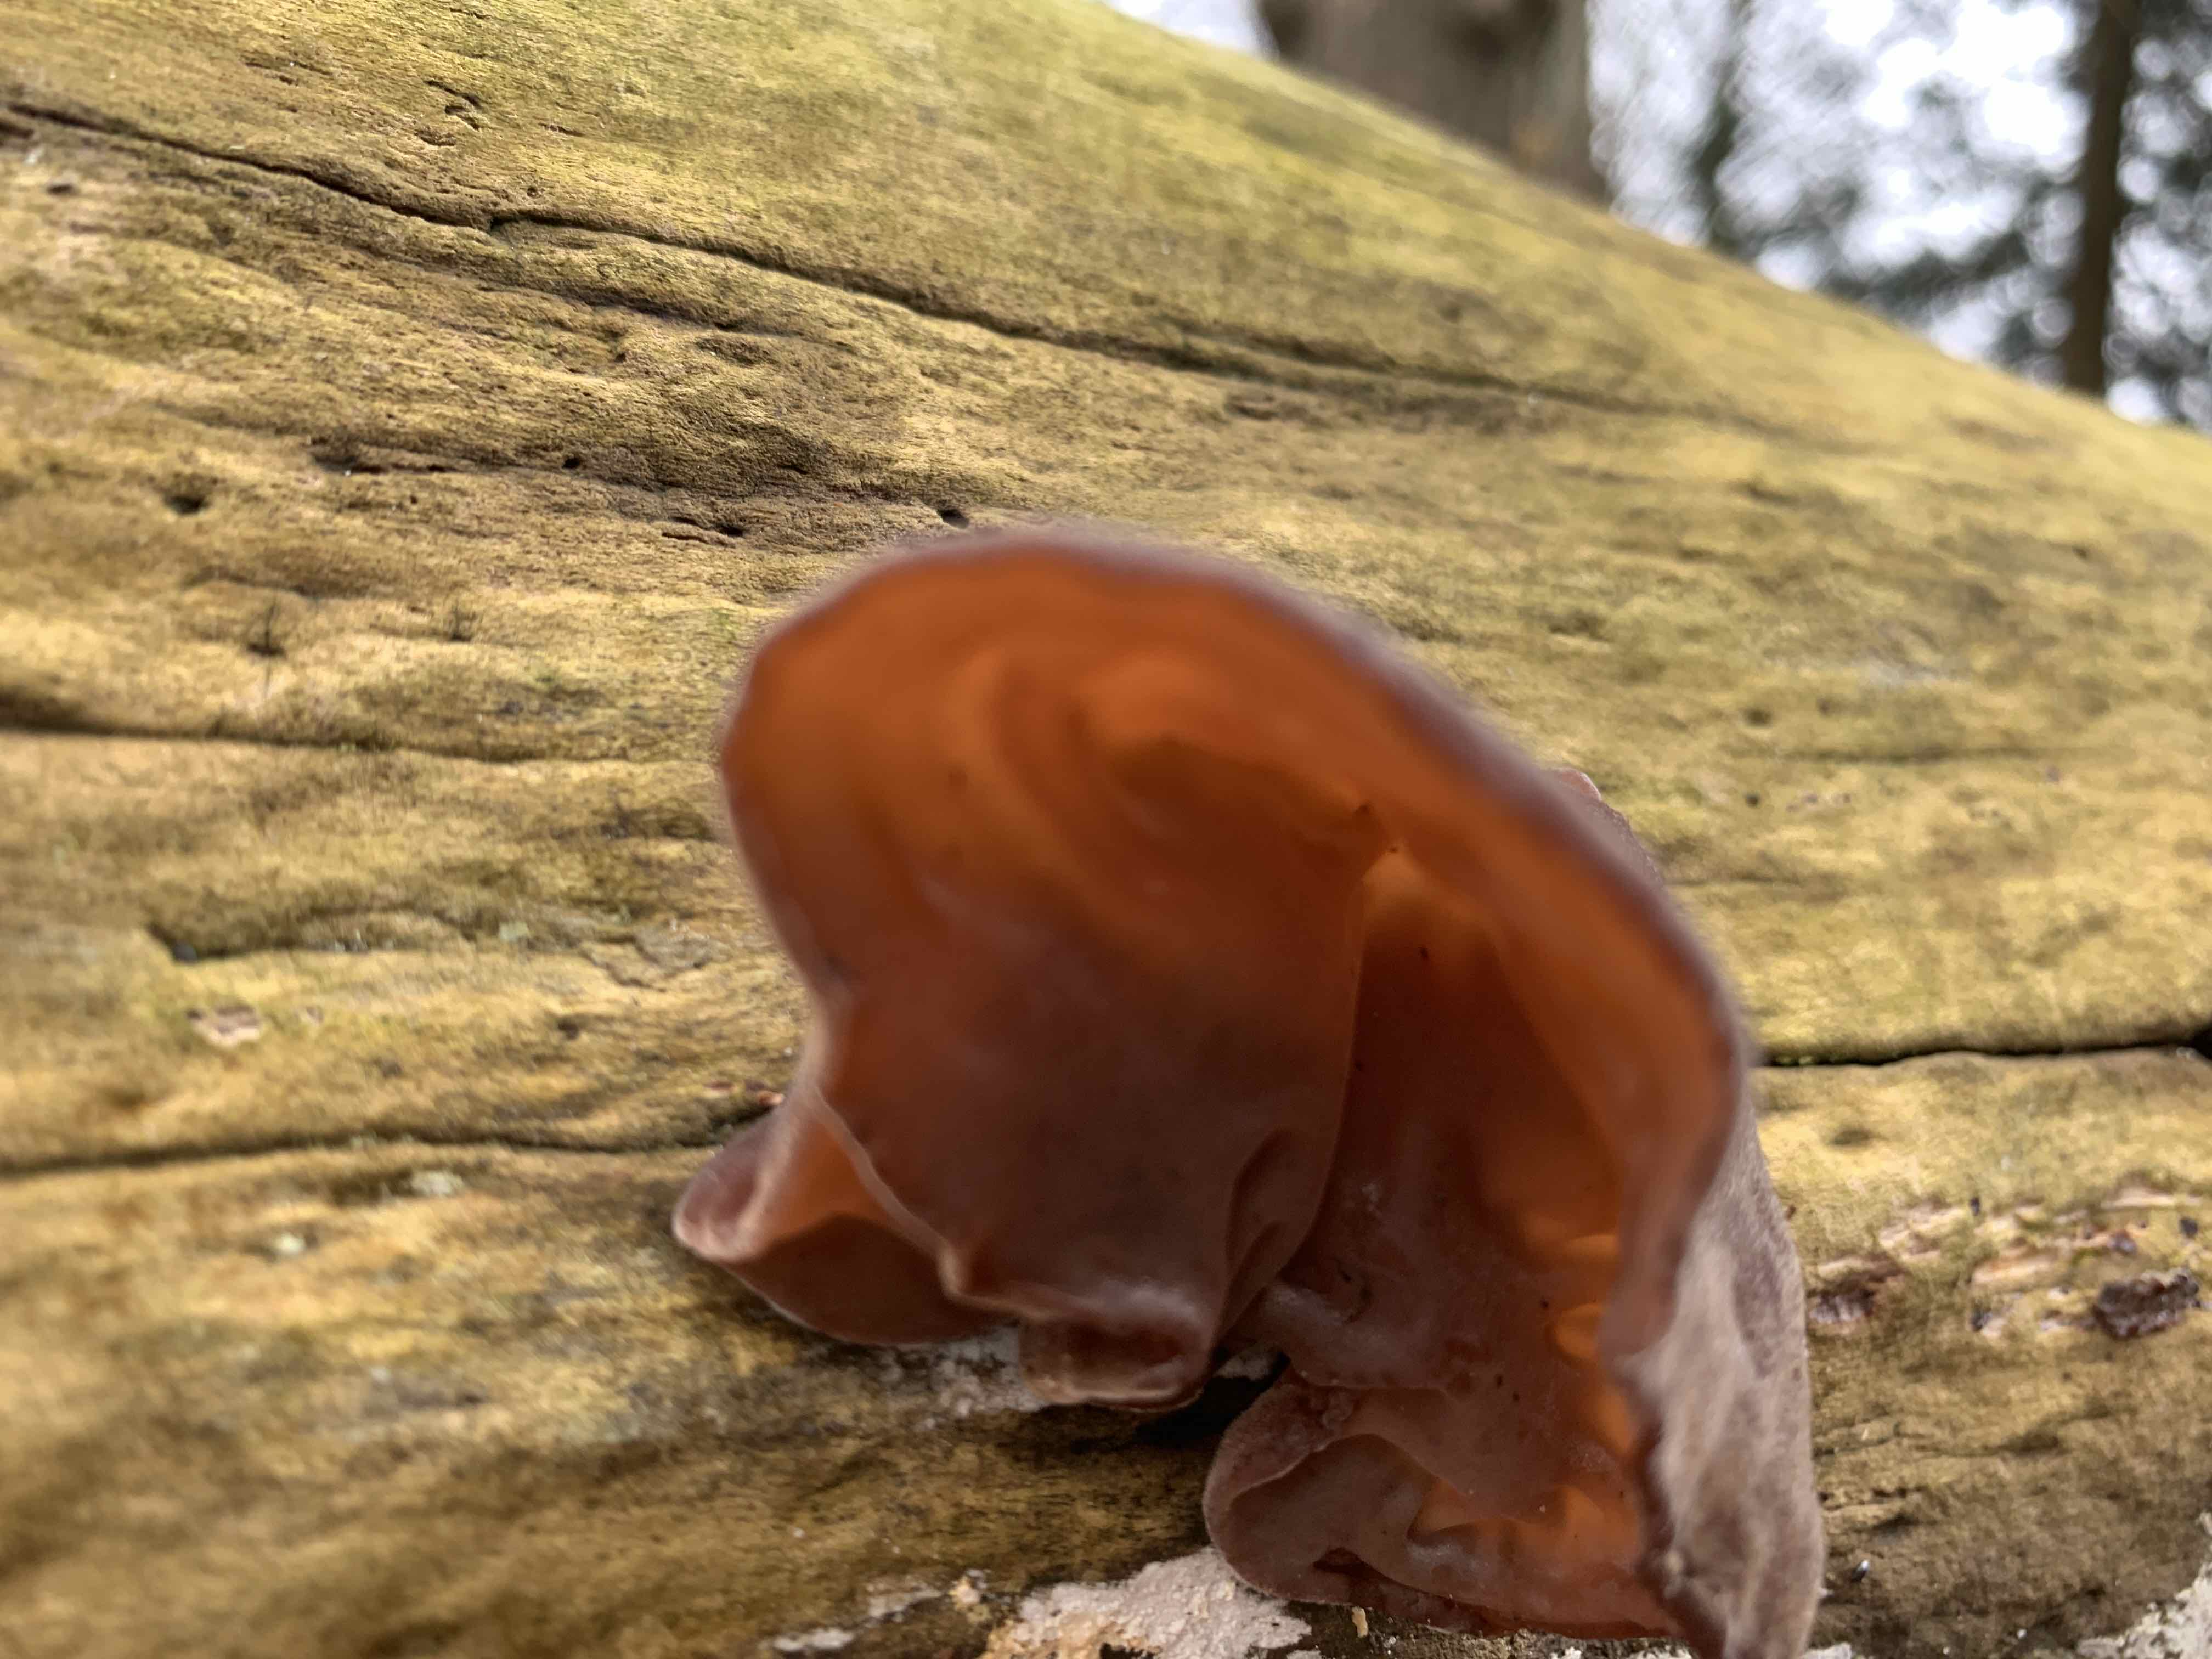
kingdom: Fungi
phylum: Basidiomycota
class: Agaricomycetes
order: Auriculariales
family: Auriculariaceae
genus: Auricularia
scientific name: Auricularia auricula-judae
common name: almindelig judasøre
